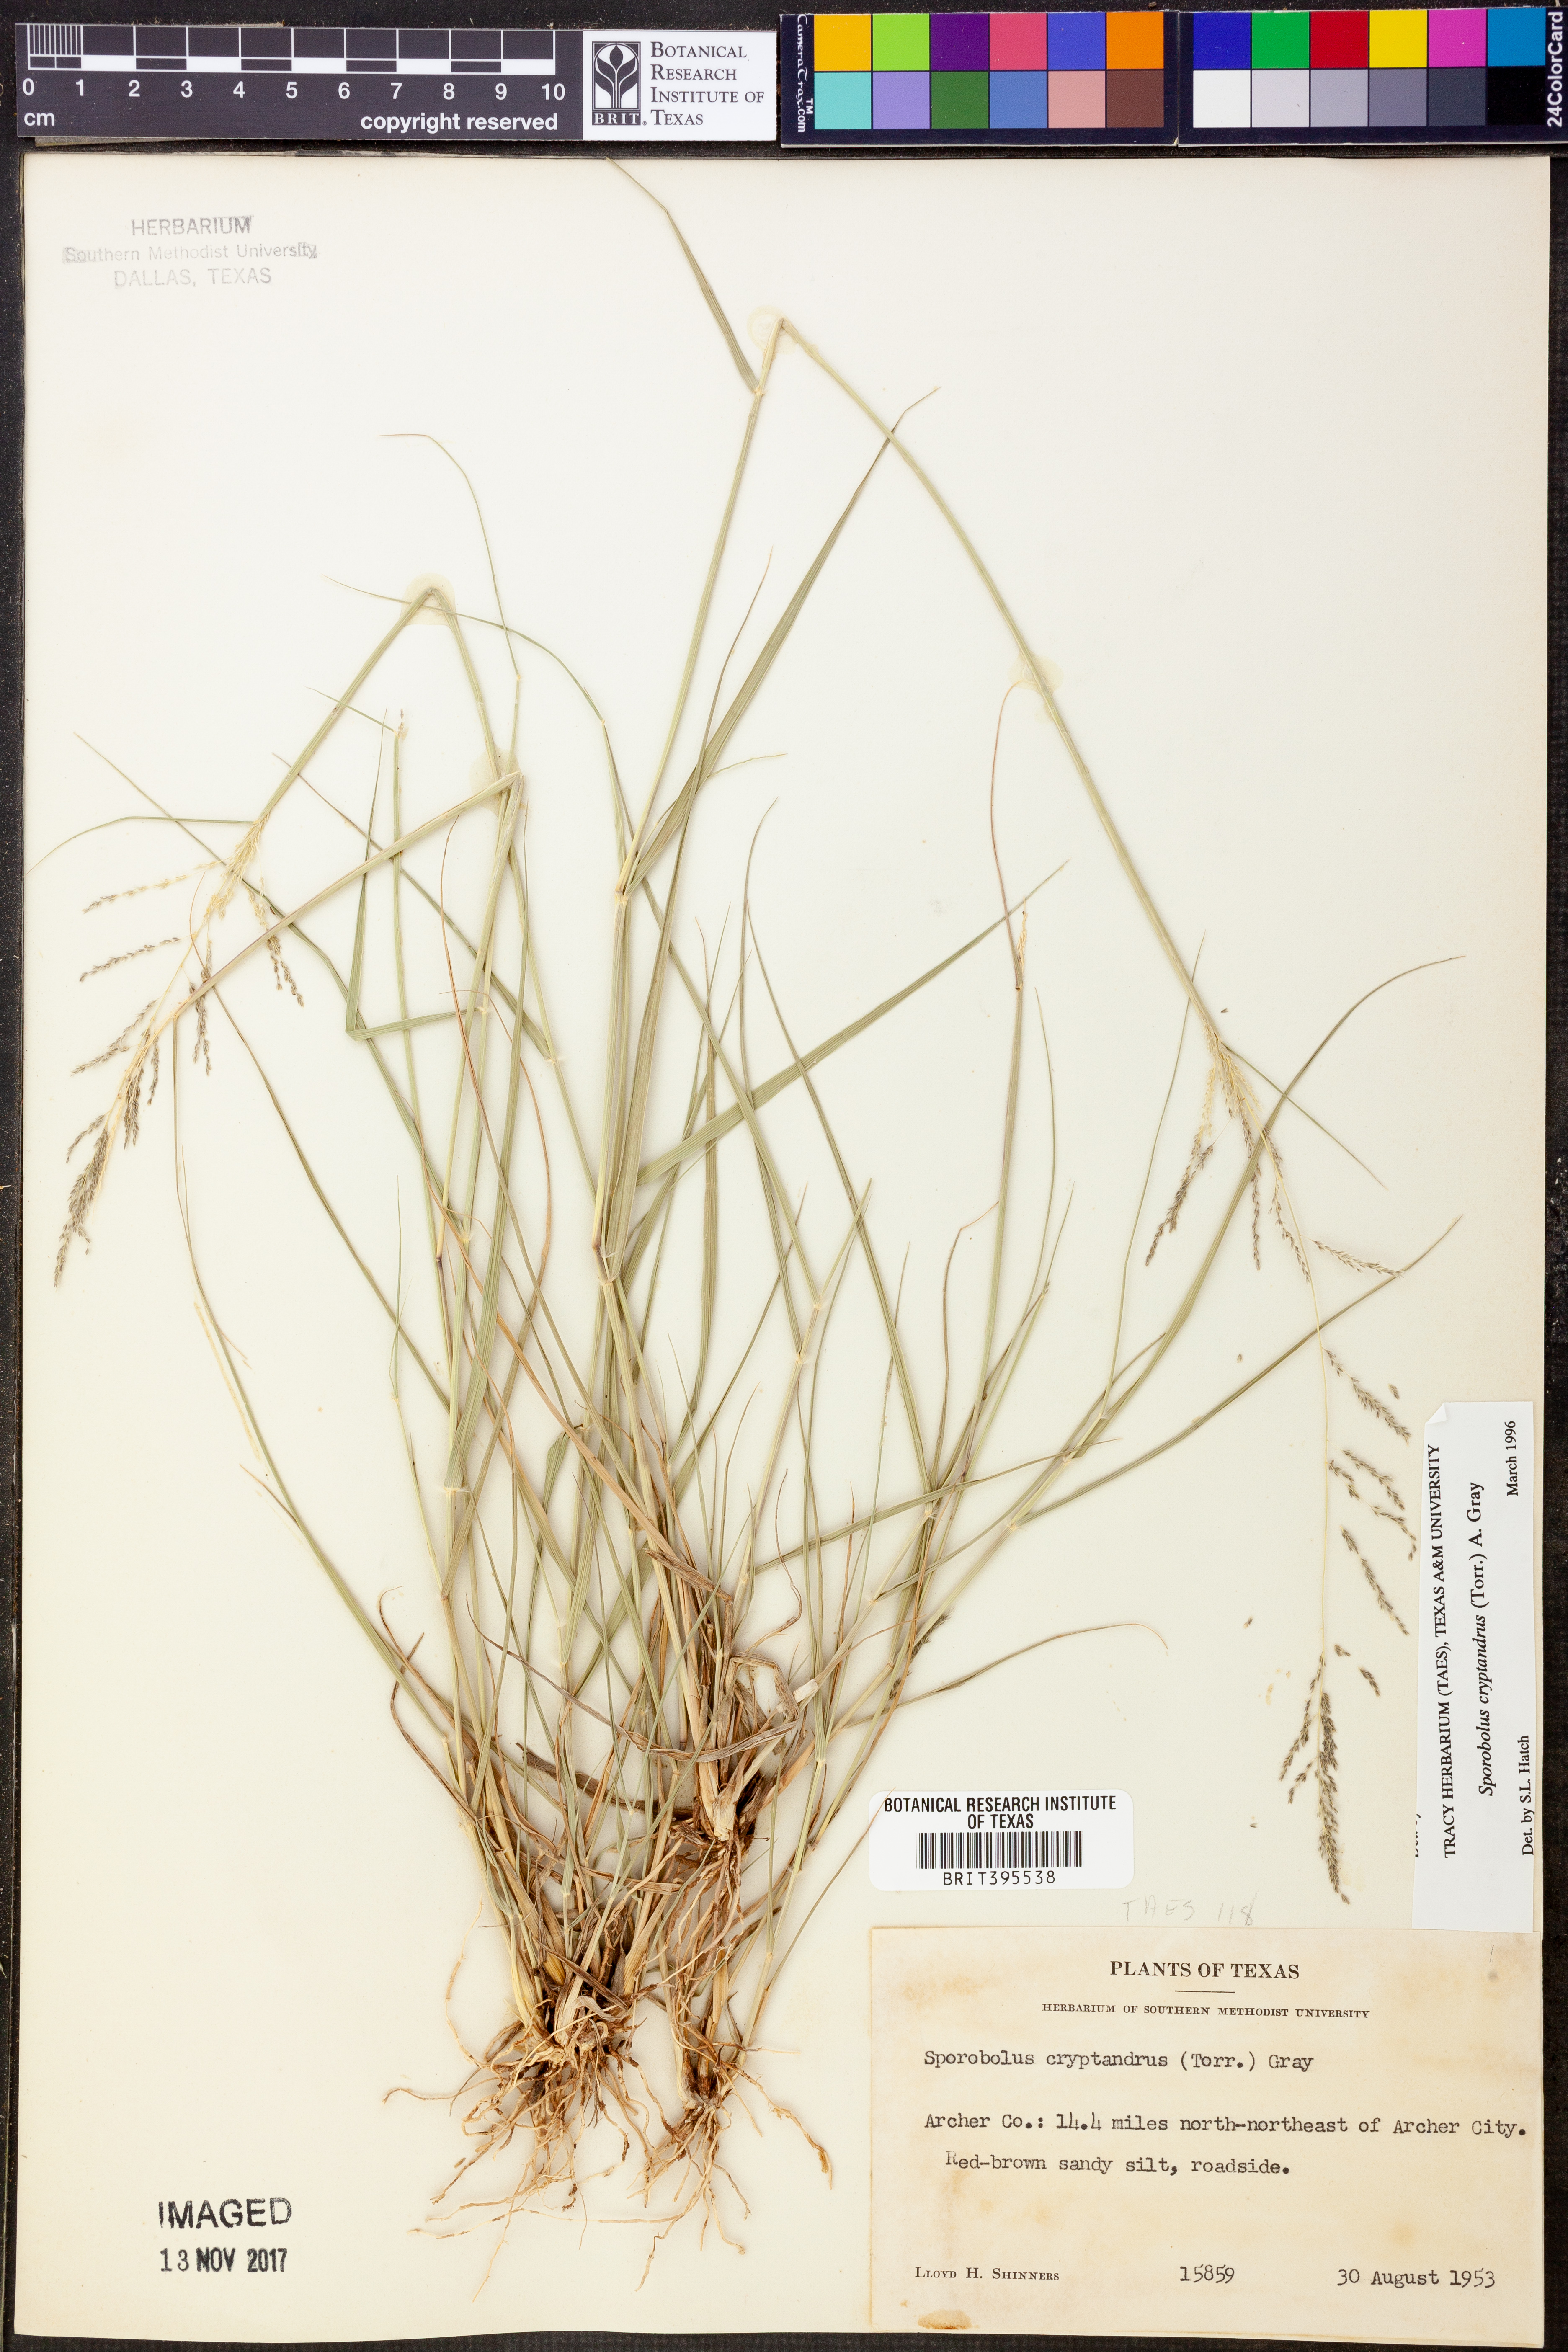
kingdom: Plantae
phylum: Tracheophyta
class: Liliopsida
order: Poales
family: Poaceae
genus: Sporobolus
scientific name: Sporobolus cryptandrus
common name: Sand dropseed
